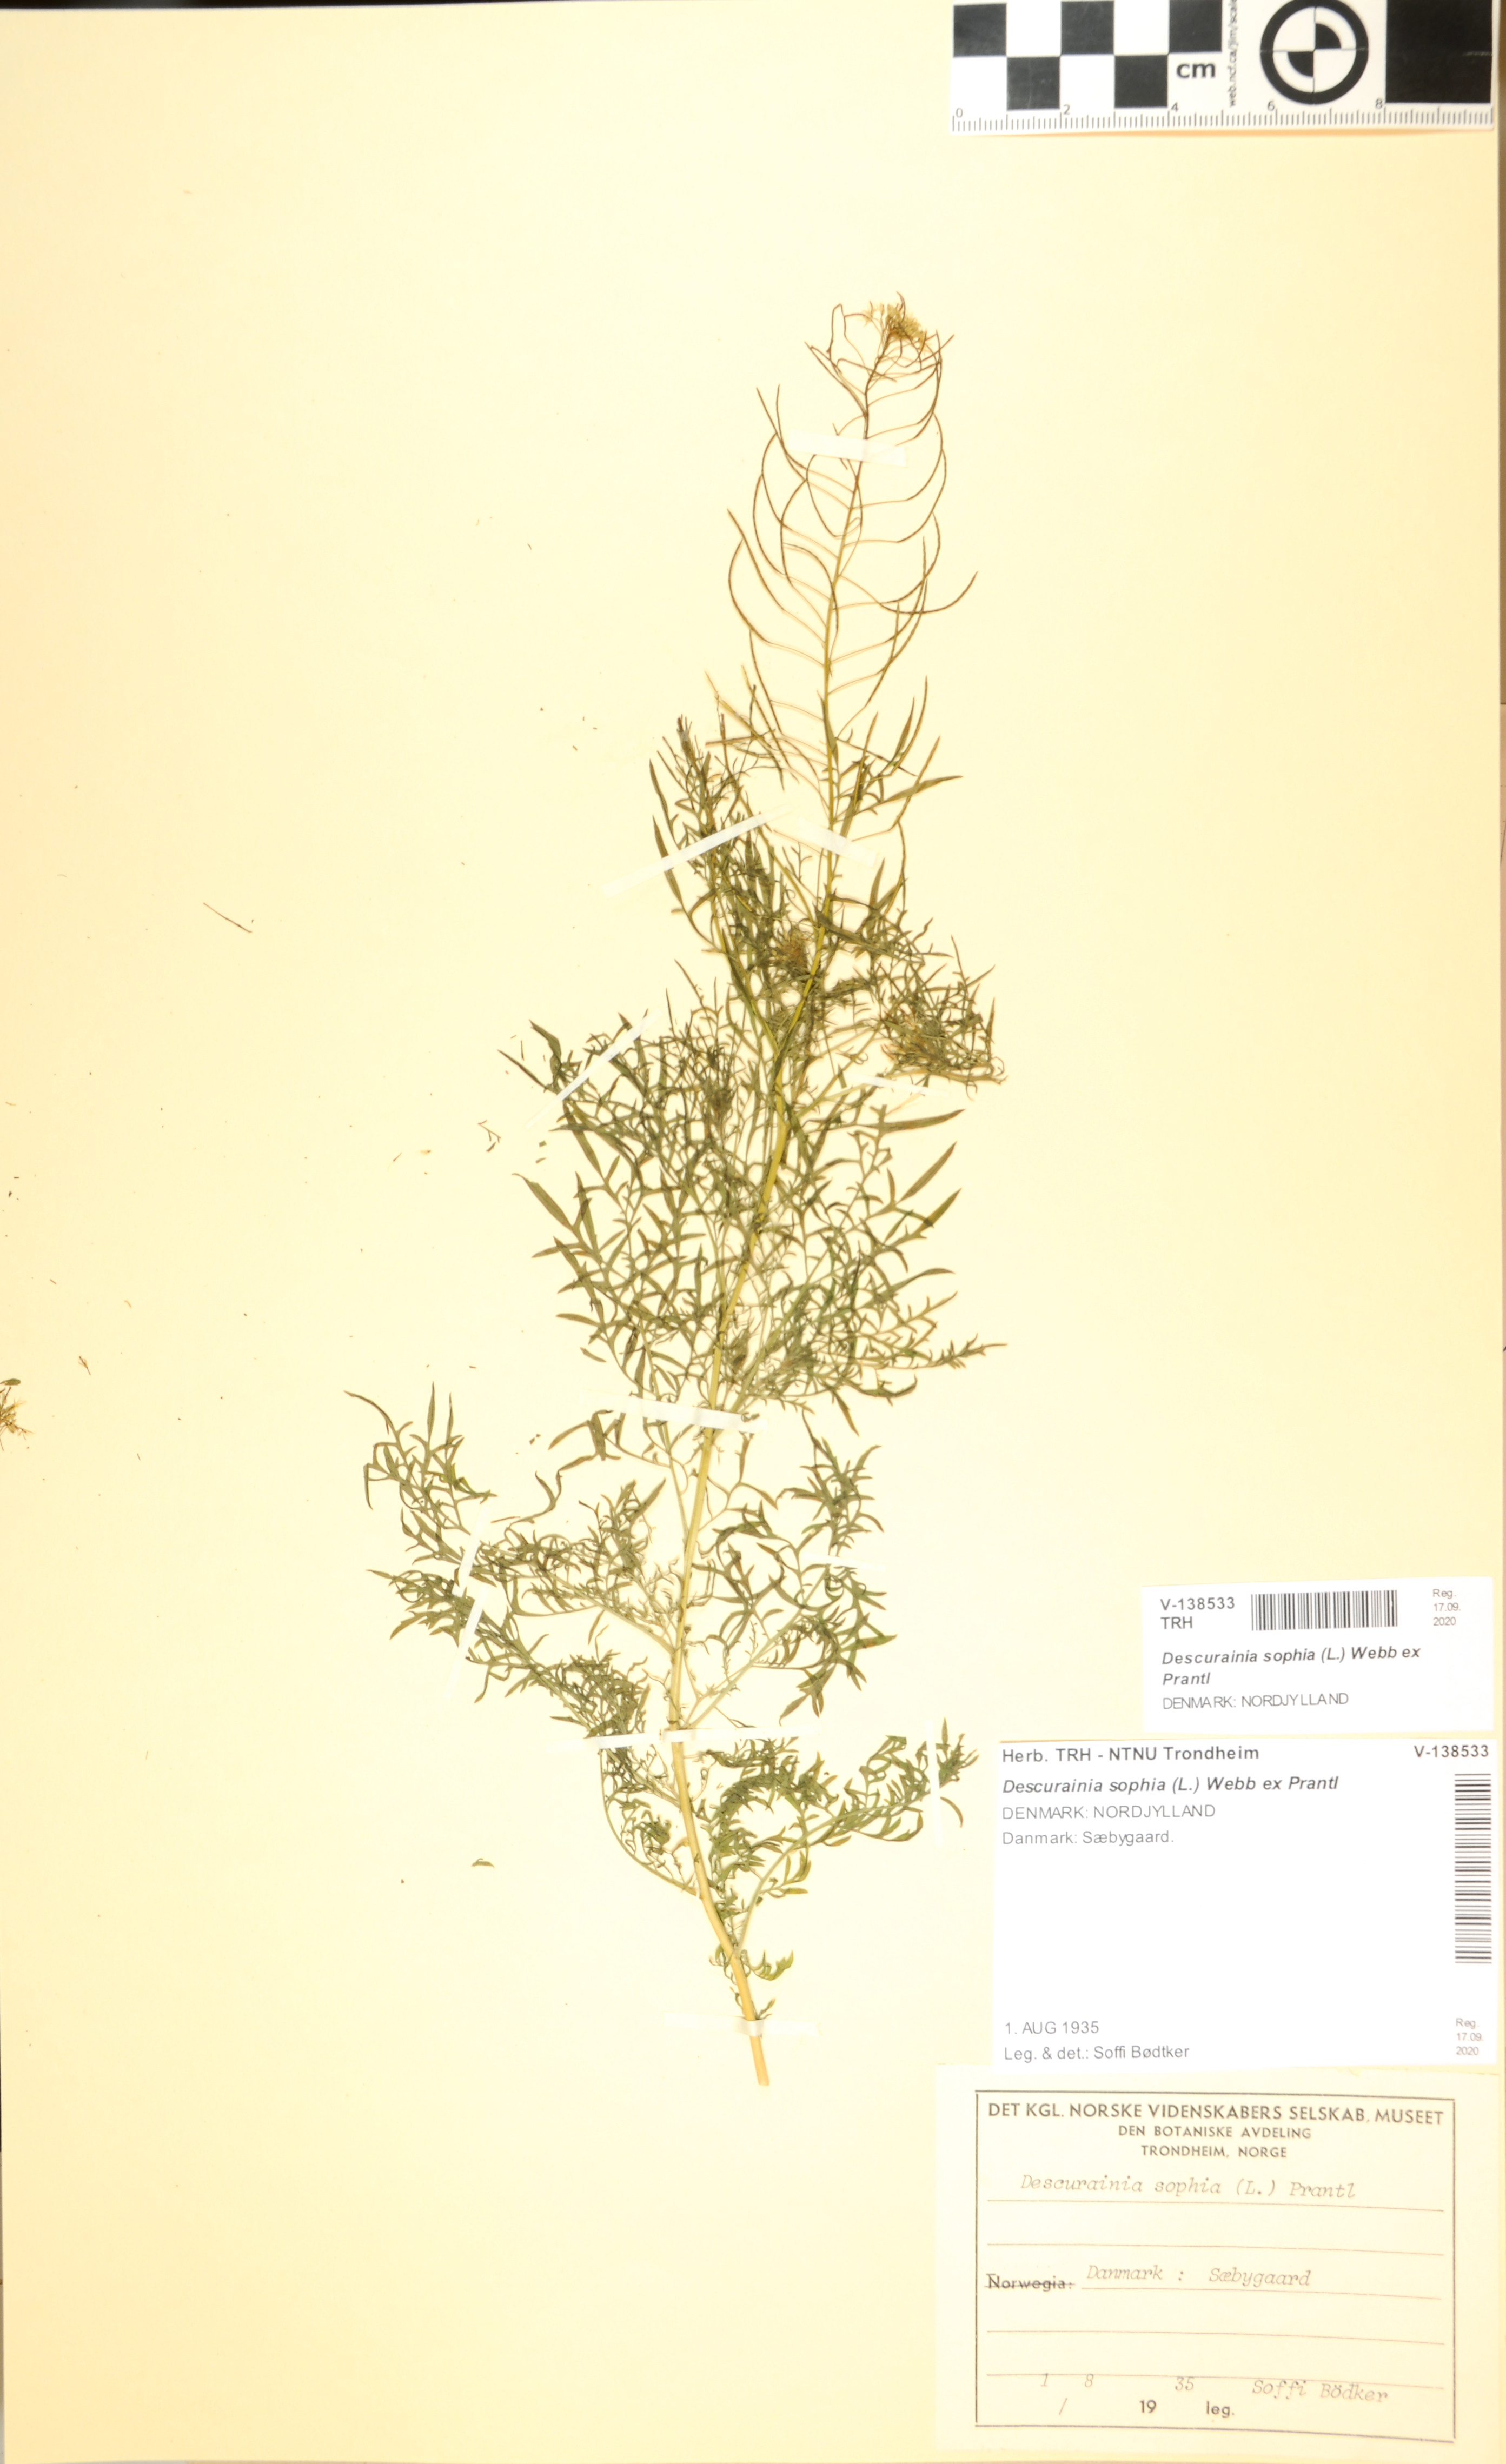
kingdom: Plantae
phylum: Tracheophyta
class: Magnoliopsida
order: Brassicales
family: Brassicaceae
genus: Descurainia
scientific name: Descurainia sophia
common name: Flixweed
